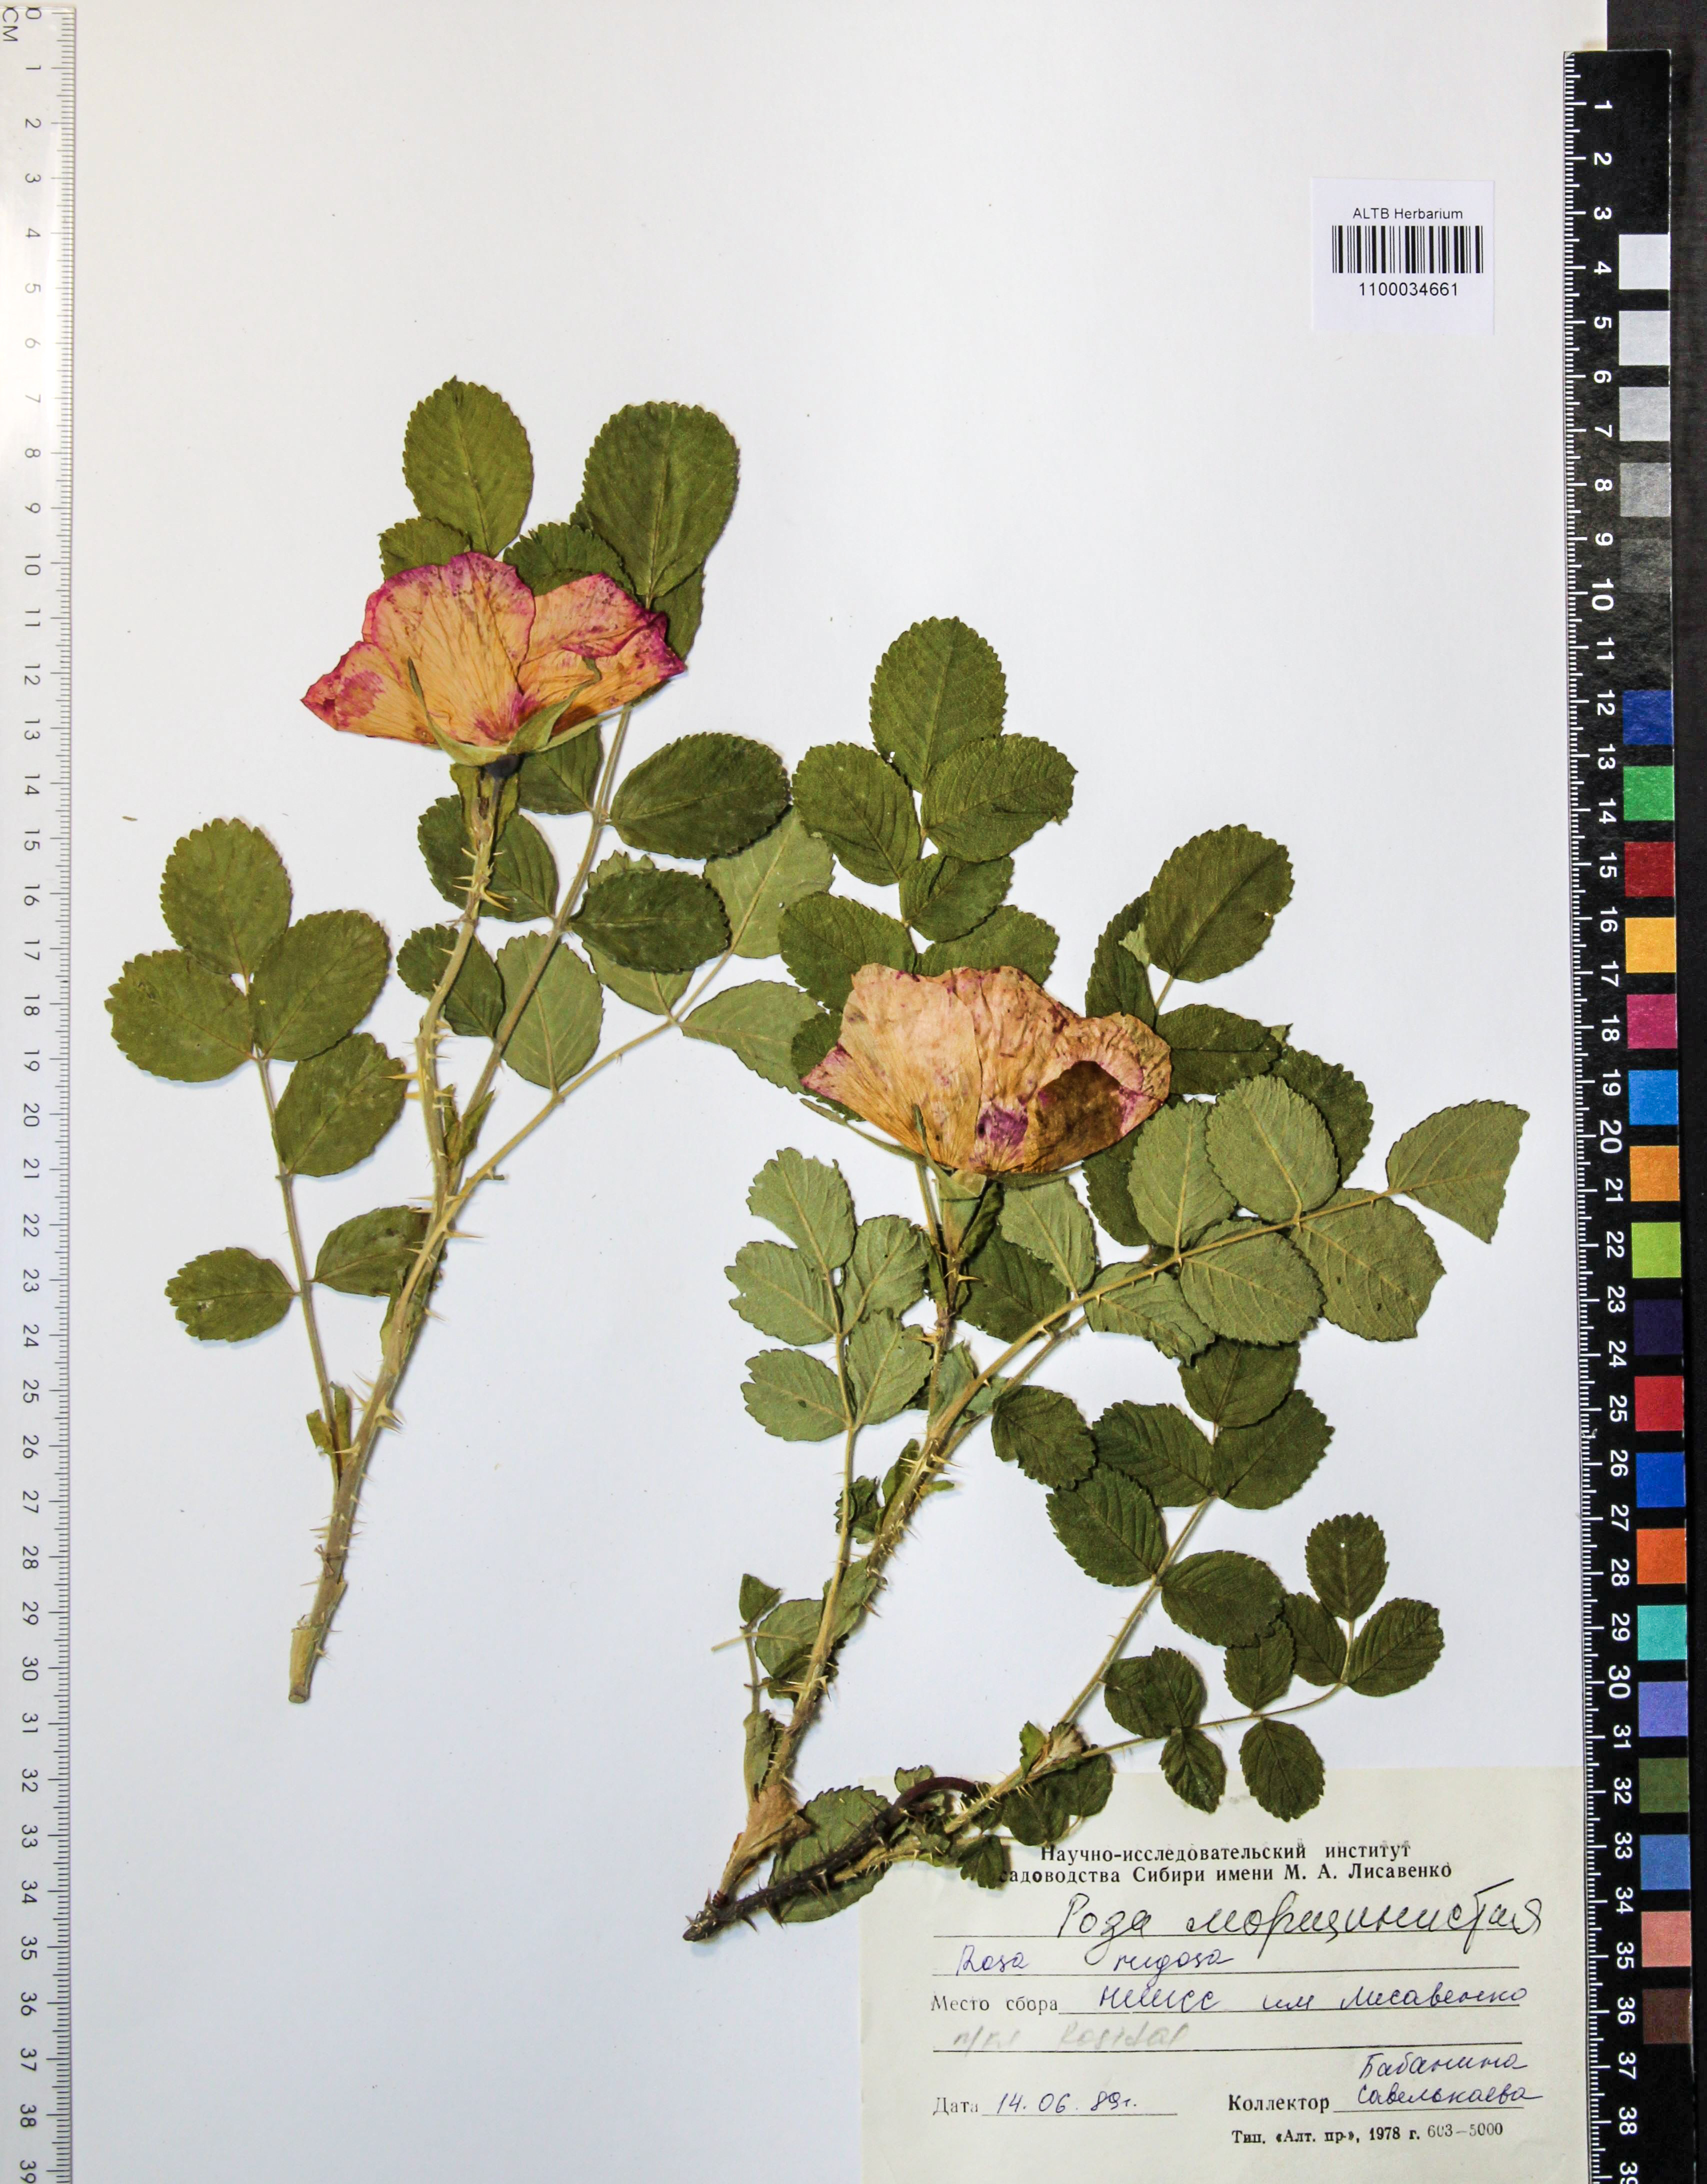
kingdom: Plantae
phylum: Tracheophyta
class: Magnoliopsida
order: Rosales
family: Rosaceae
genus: Rosa
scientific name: Rosa rugosa
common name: Japanese rose
